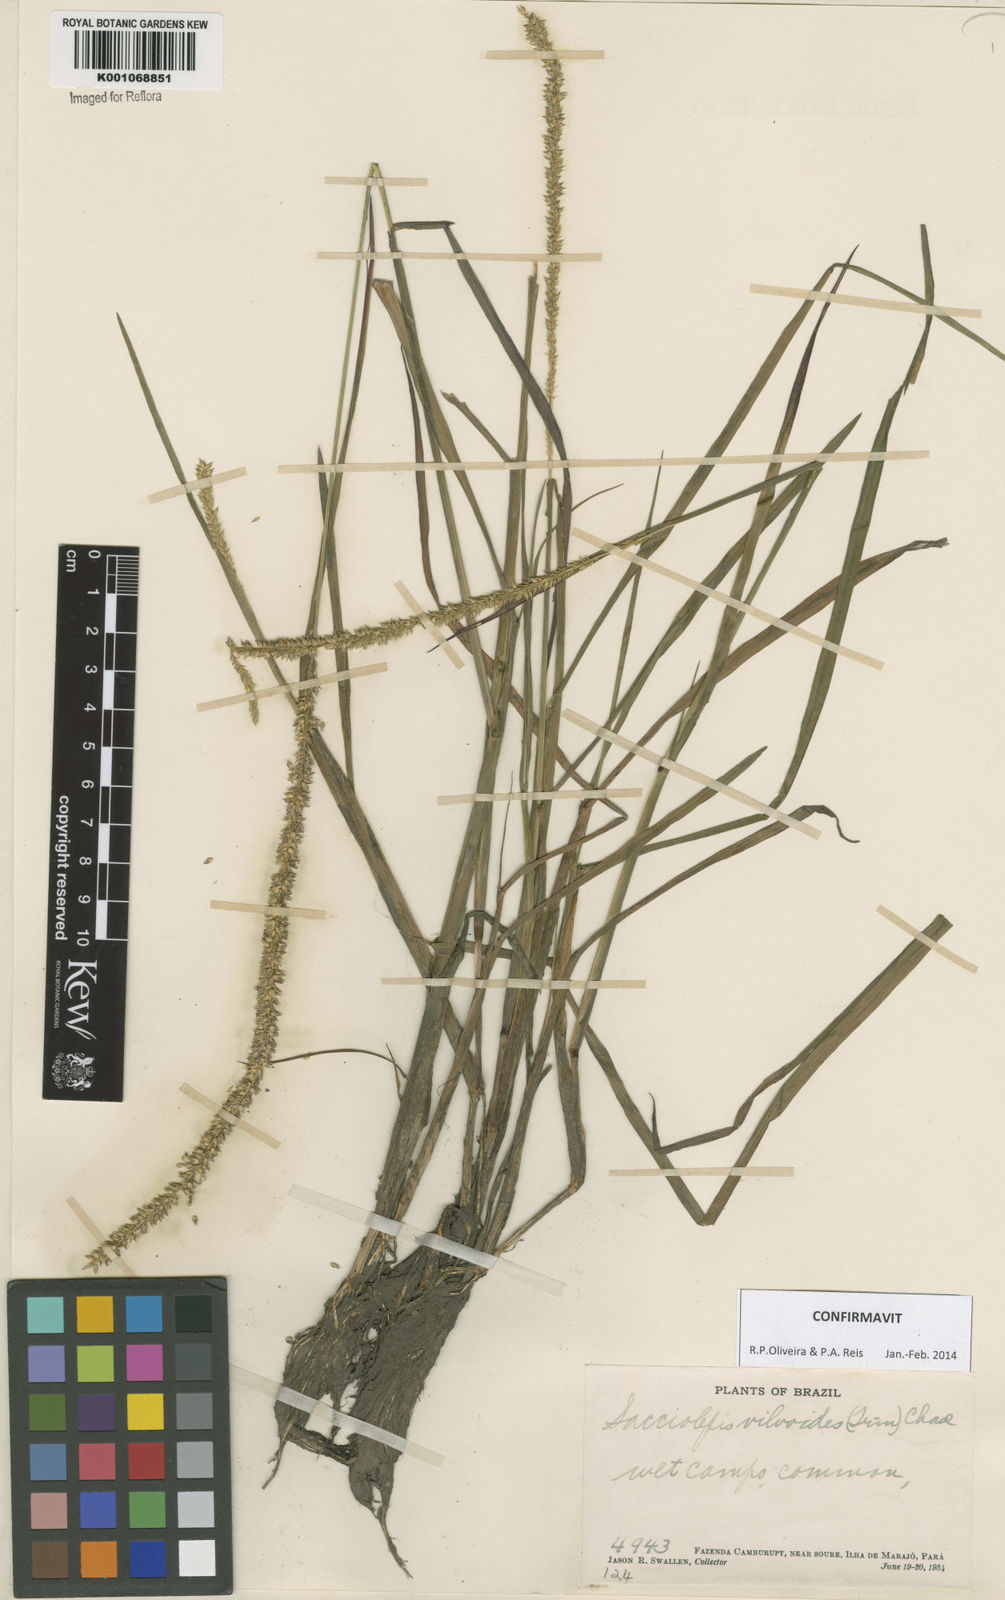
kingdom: Plantae
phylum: Tracheophyta
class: Liliopsida
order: Poales
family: Poaceae
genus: Sacciolepis
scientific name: Sacciolepis vilvoides
